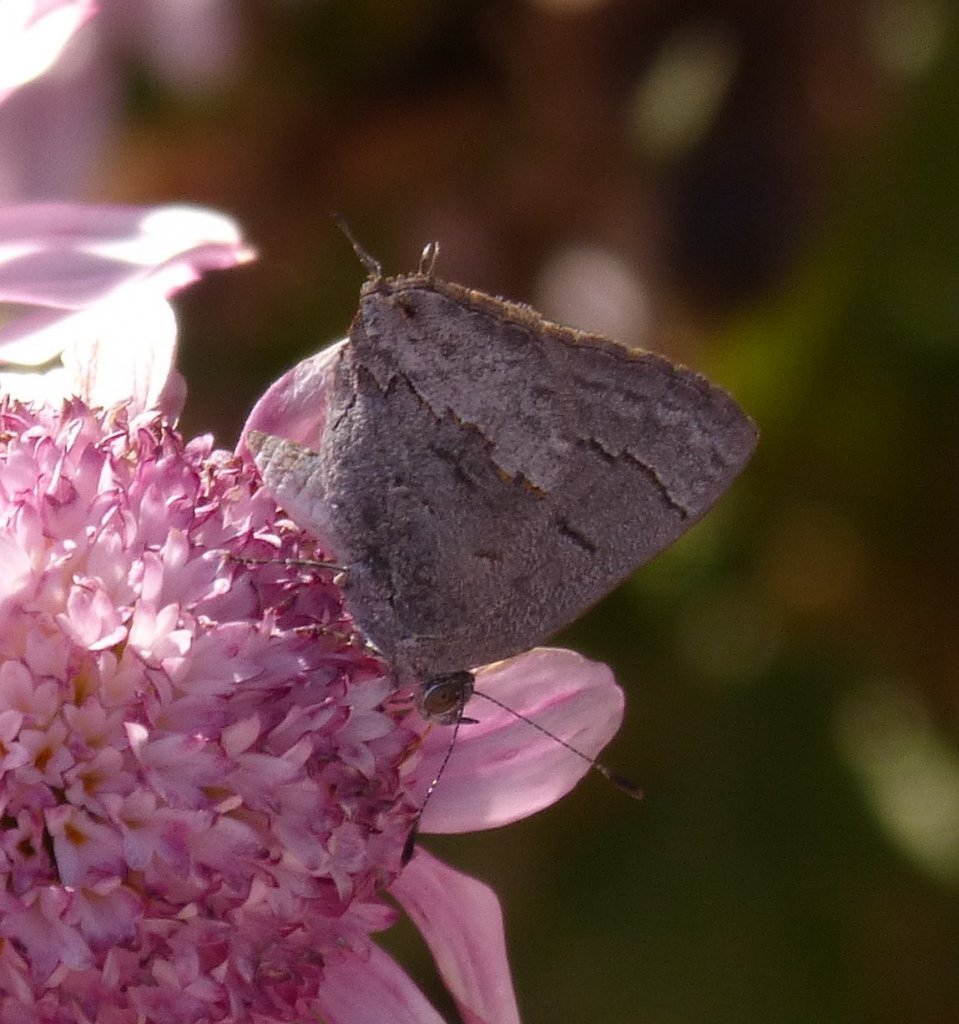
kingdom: Animalia
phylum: Arthropoda
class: Insecta
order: Lepidoptera
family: Lycaenidae
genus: Ministrymon
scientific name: Ministrymon leda
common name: Leda Ministreak
